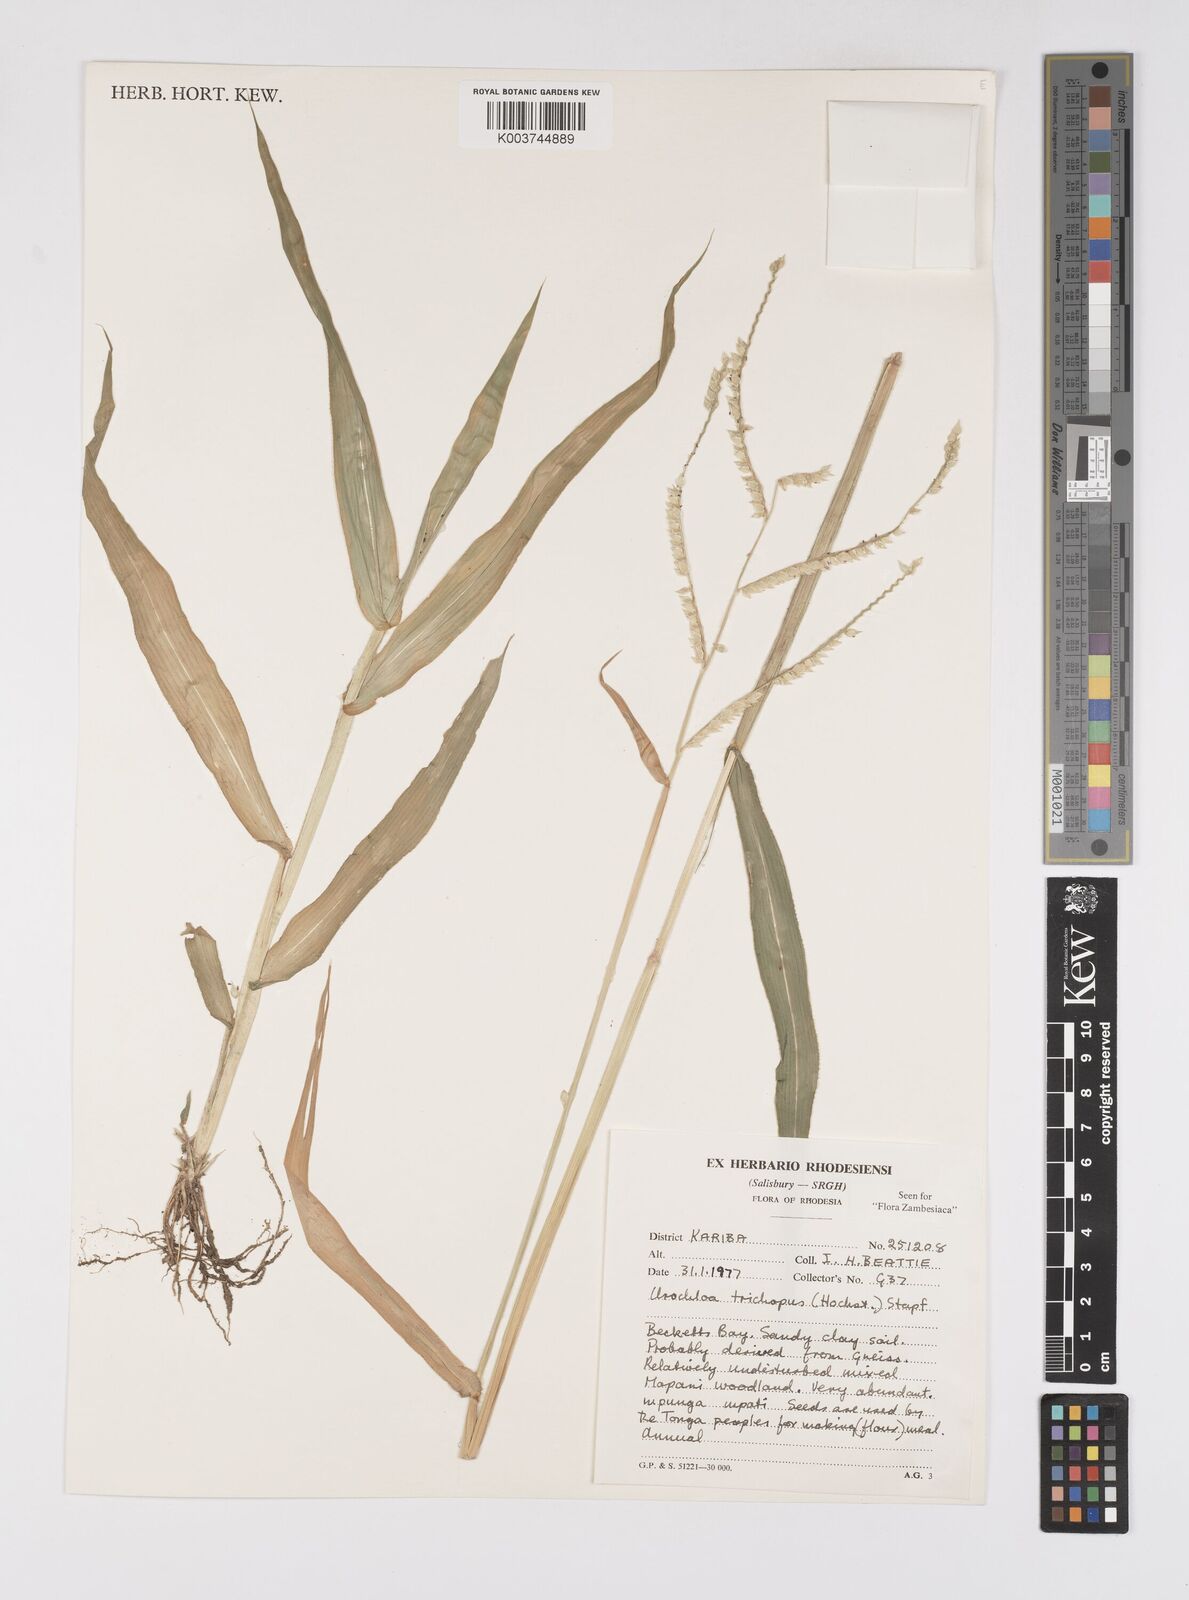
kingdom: Plantae
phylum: Tracheophyta
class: Liliopsida
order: Poales
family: Poaceae
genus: Urochloa
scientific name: Urochloa trichopus
